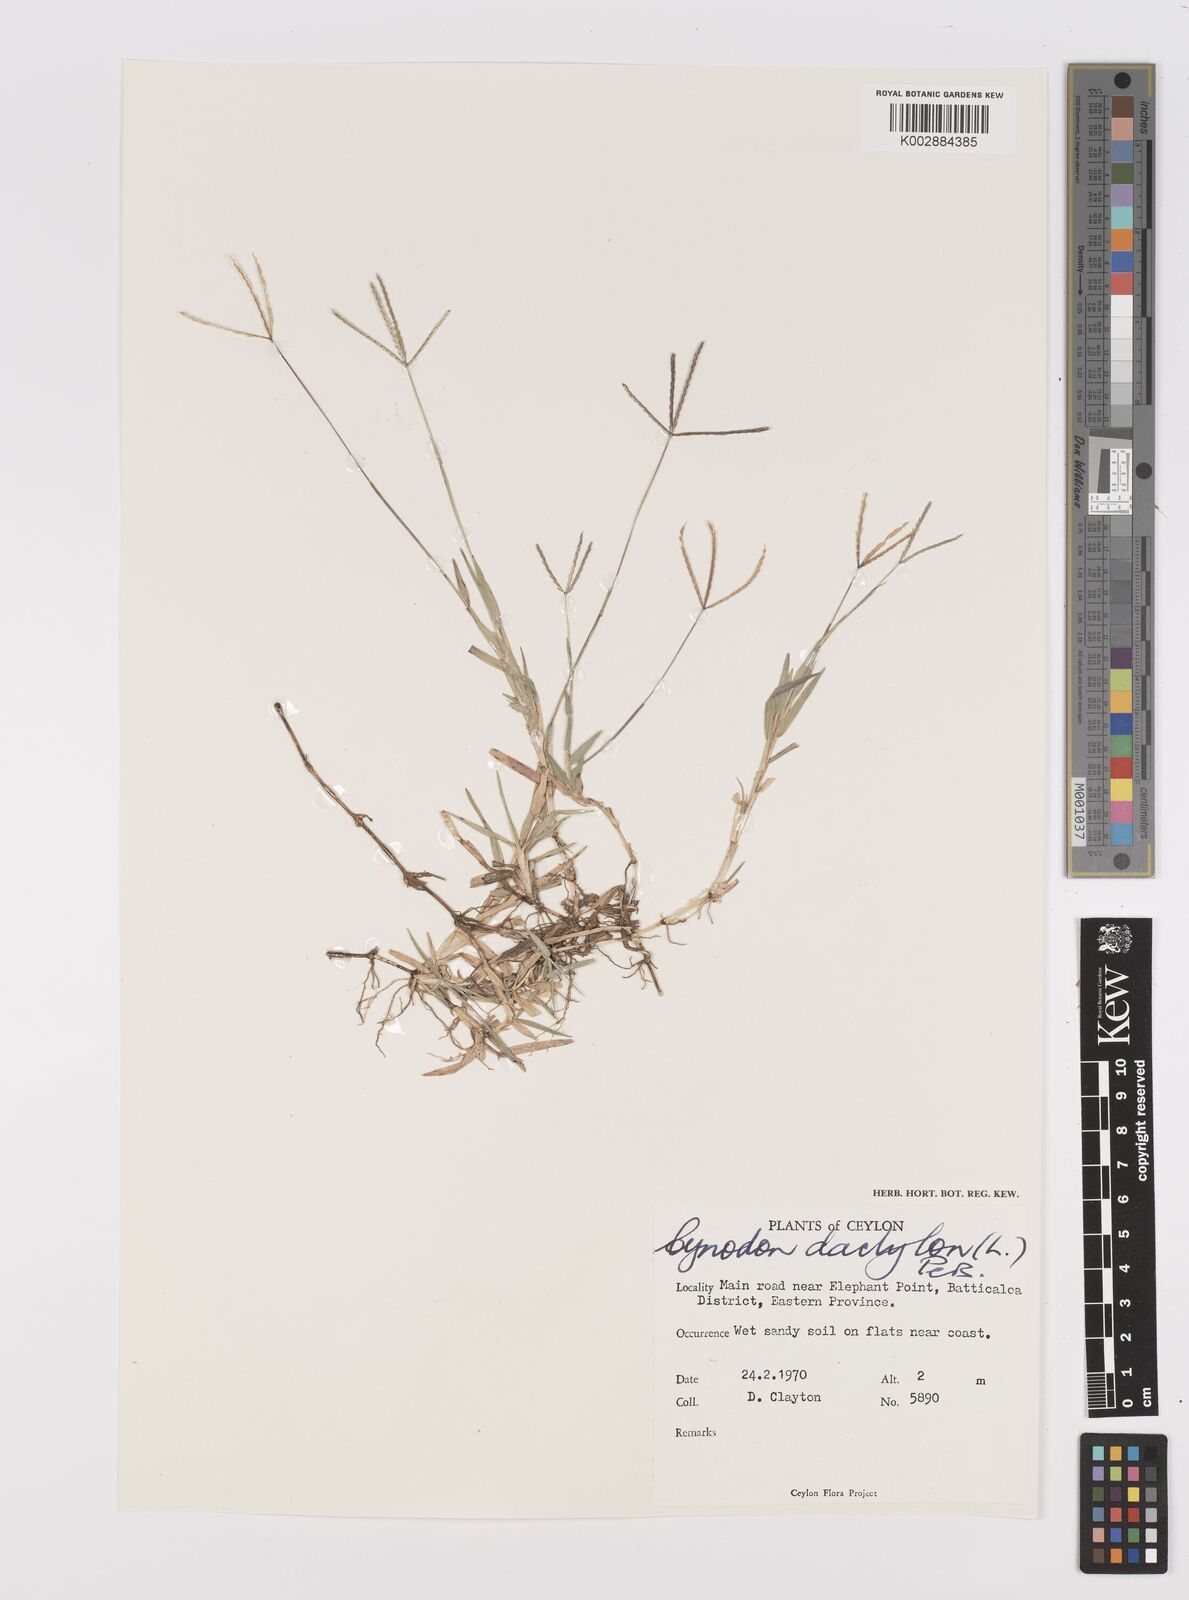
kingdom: Plantae
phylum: Tracheophyta
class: Liliopsida
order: Poales
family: Poaceae
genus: Cynodon
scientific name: Cynodon dactylon
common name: Bermuda grass
